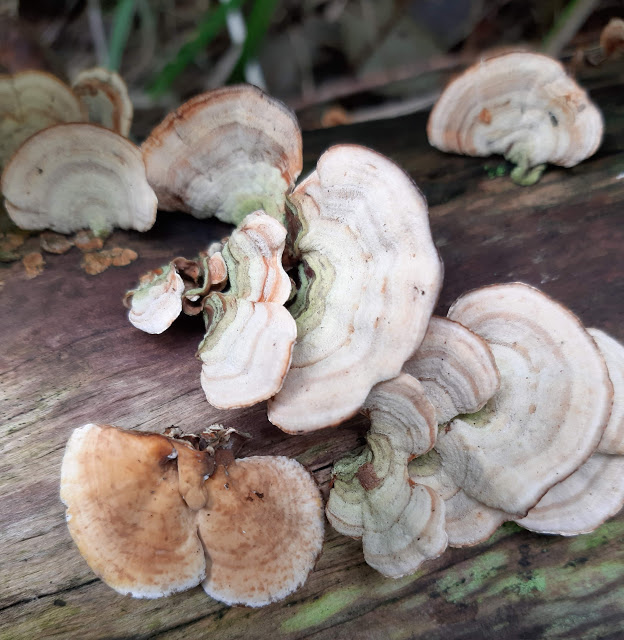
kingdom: Fungi
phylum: Basidiomycota
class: Agaricomycetes
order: Russulales
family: Stereaceae
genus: Stereum
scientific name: Stereum subtomentosum
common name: smuk lædersvamp
